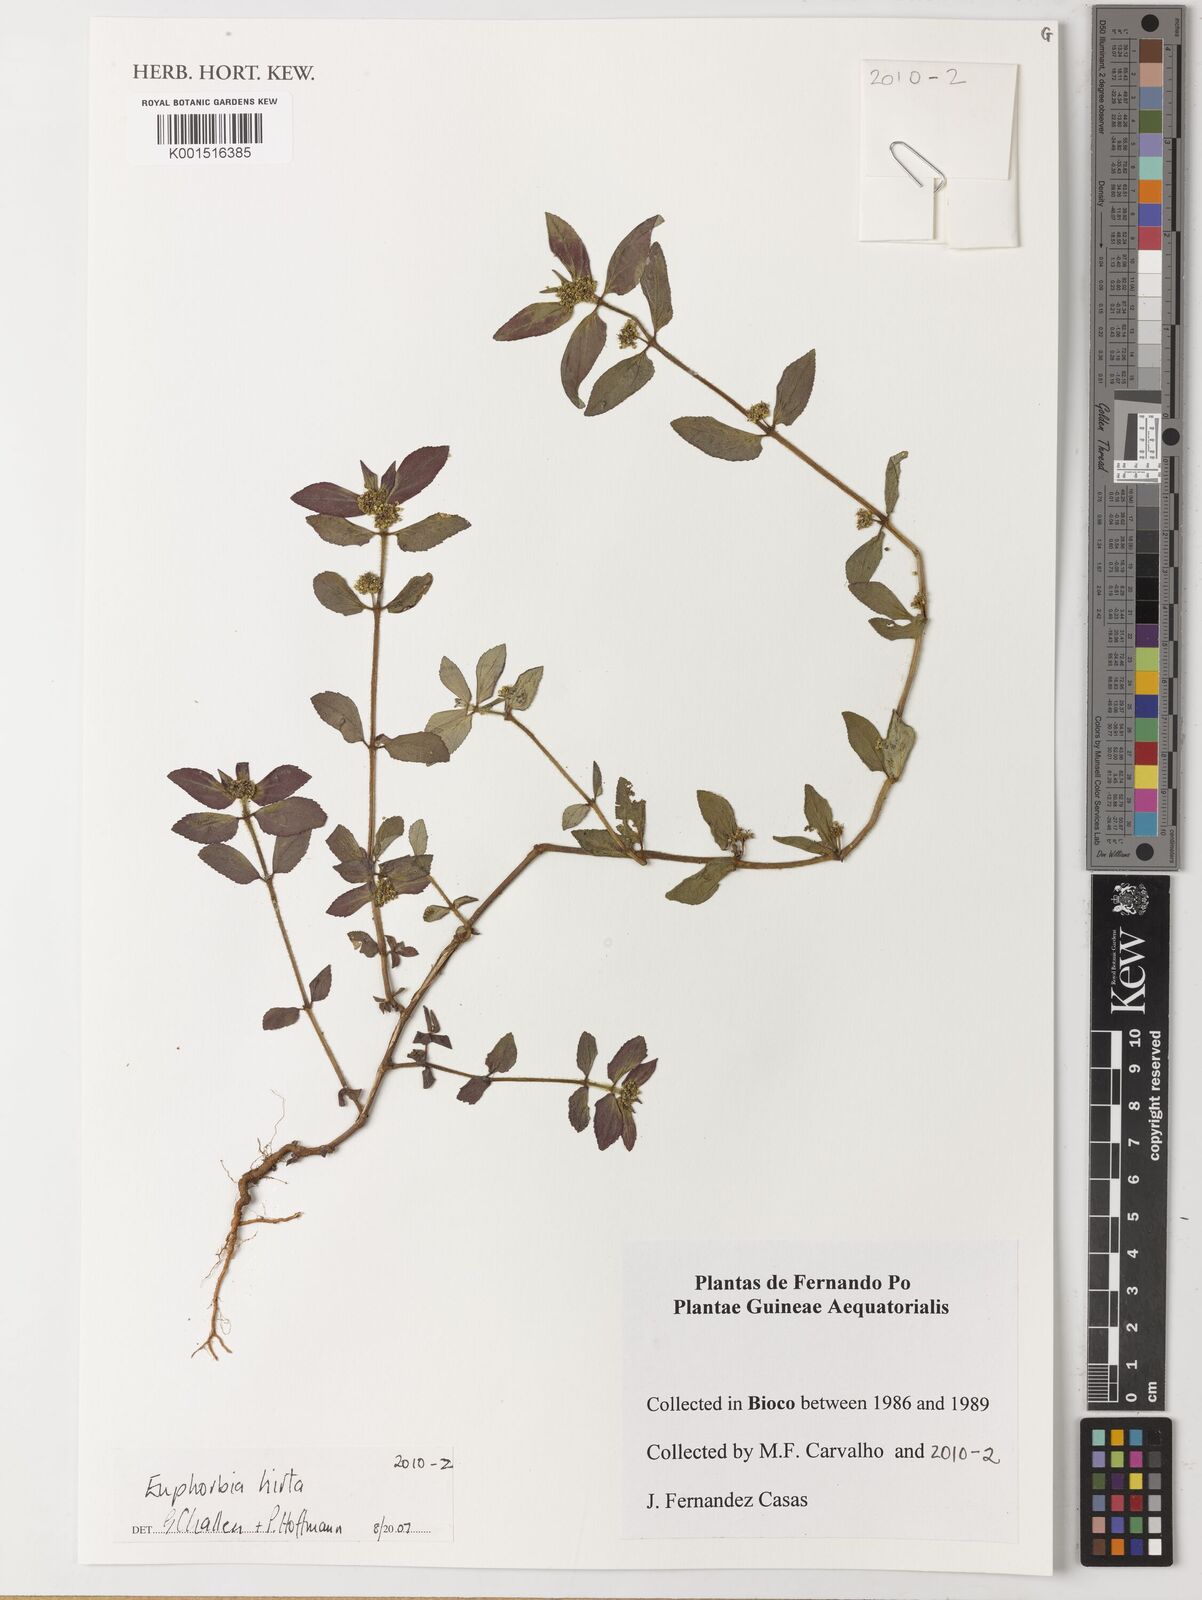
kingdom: Plantae
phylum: Tracheophyta
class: Magnoliopsida
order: Malpighiales
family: Euphorbiaceae
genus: Euphorbia
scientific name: Euphorbia hirta
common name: Pillpod sandmat
